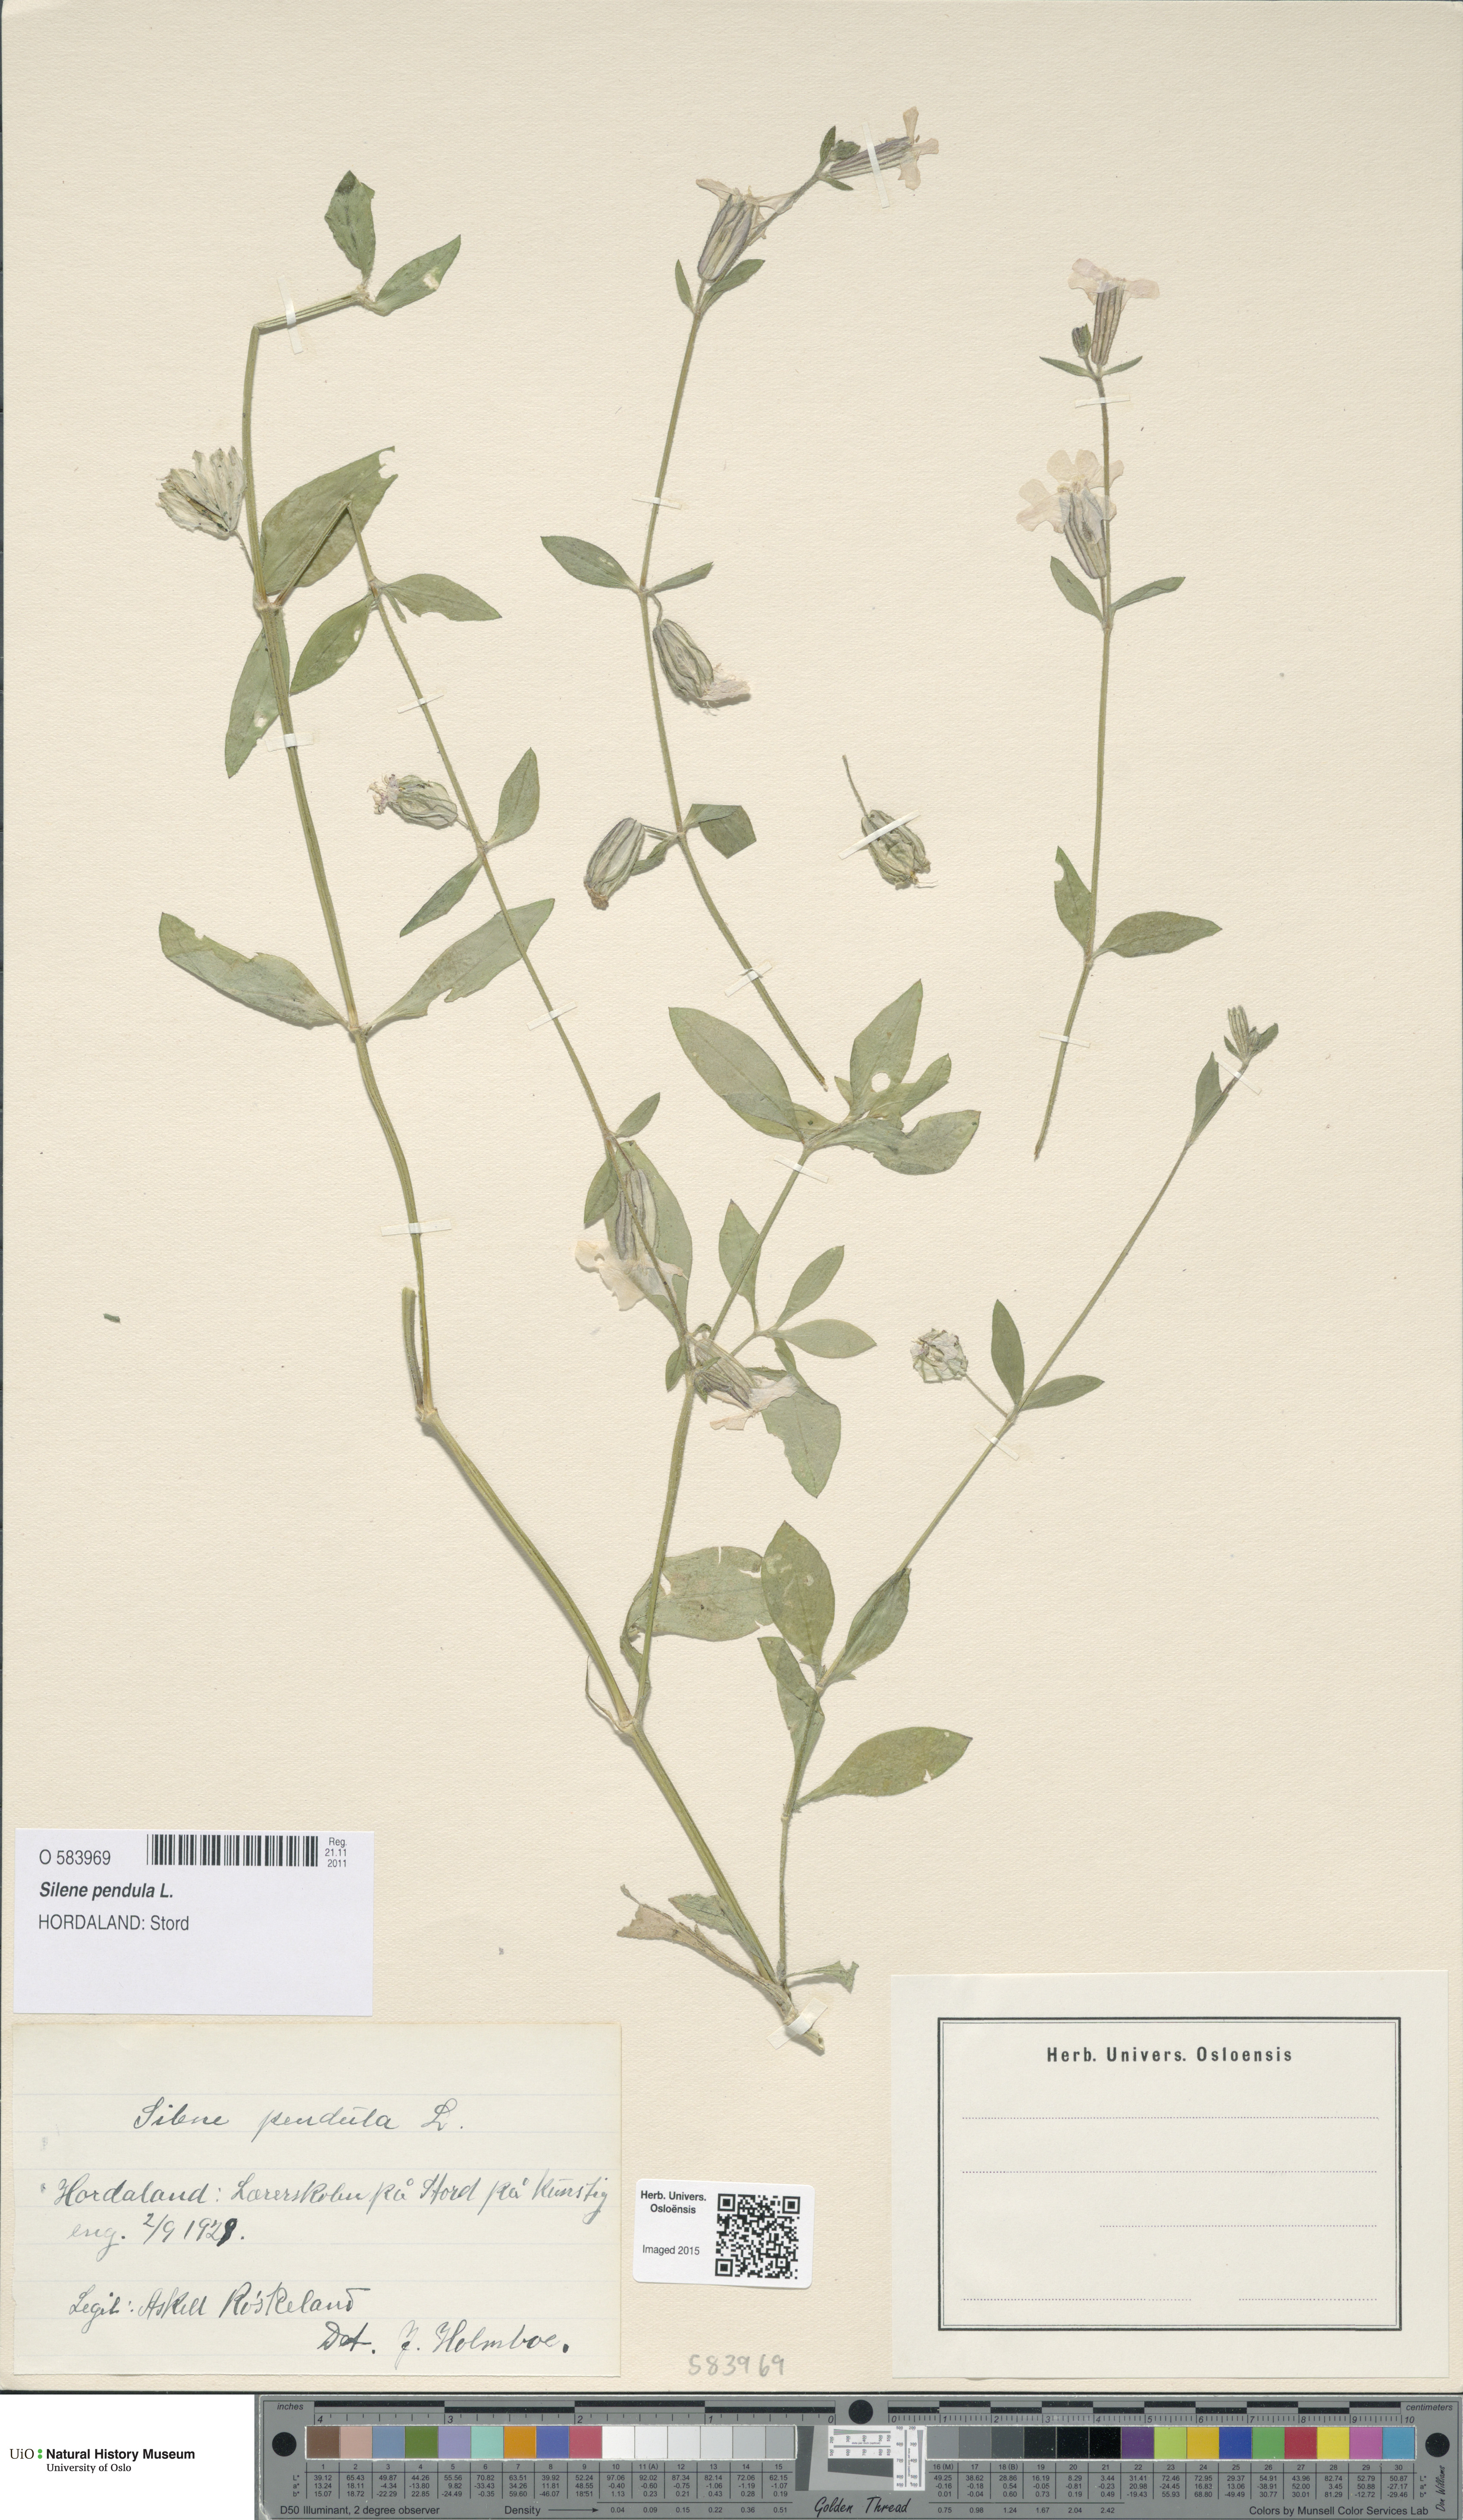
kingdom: Plantae
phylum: Tracheophyta
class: Magnoliopsida
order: Caryophyllales
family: Caryophyllaceae
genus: Silene
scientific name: Silene pendula
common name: Nodding catchfly
